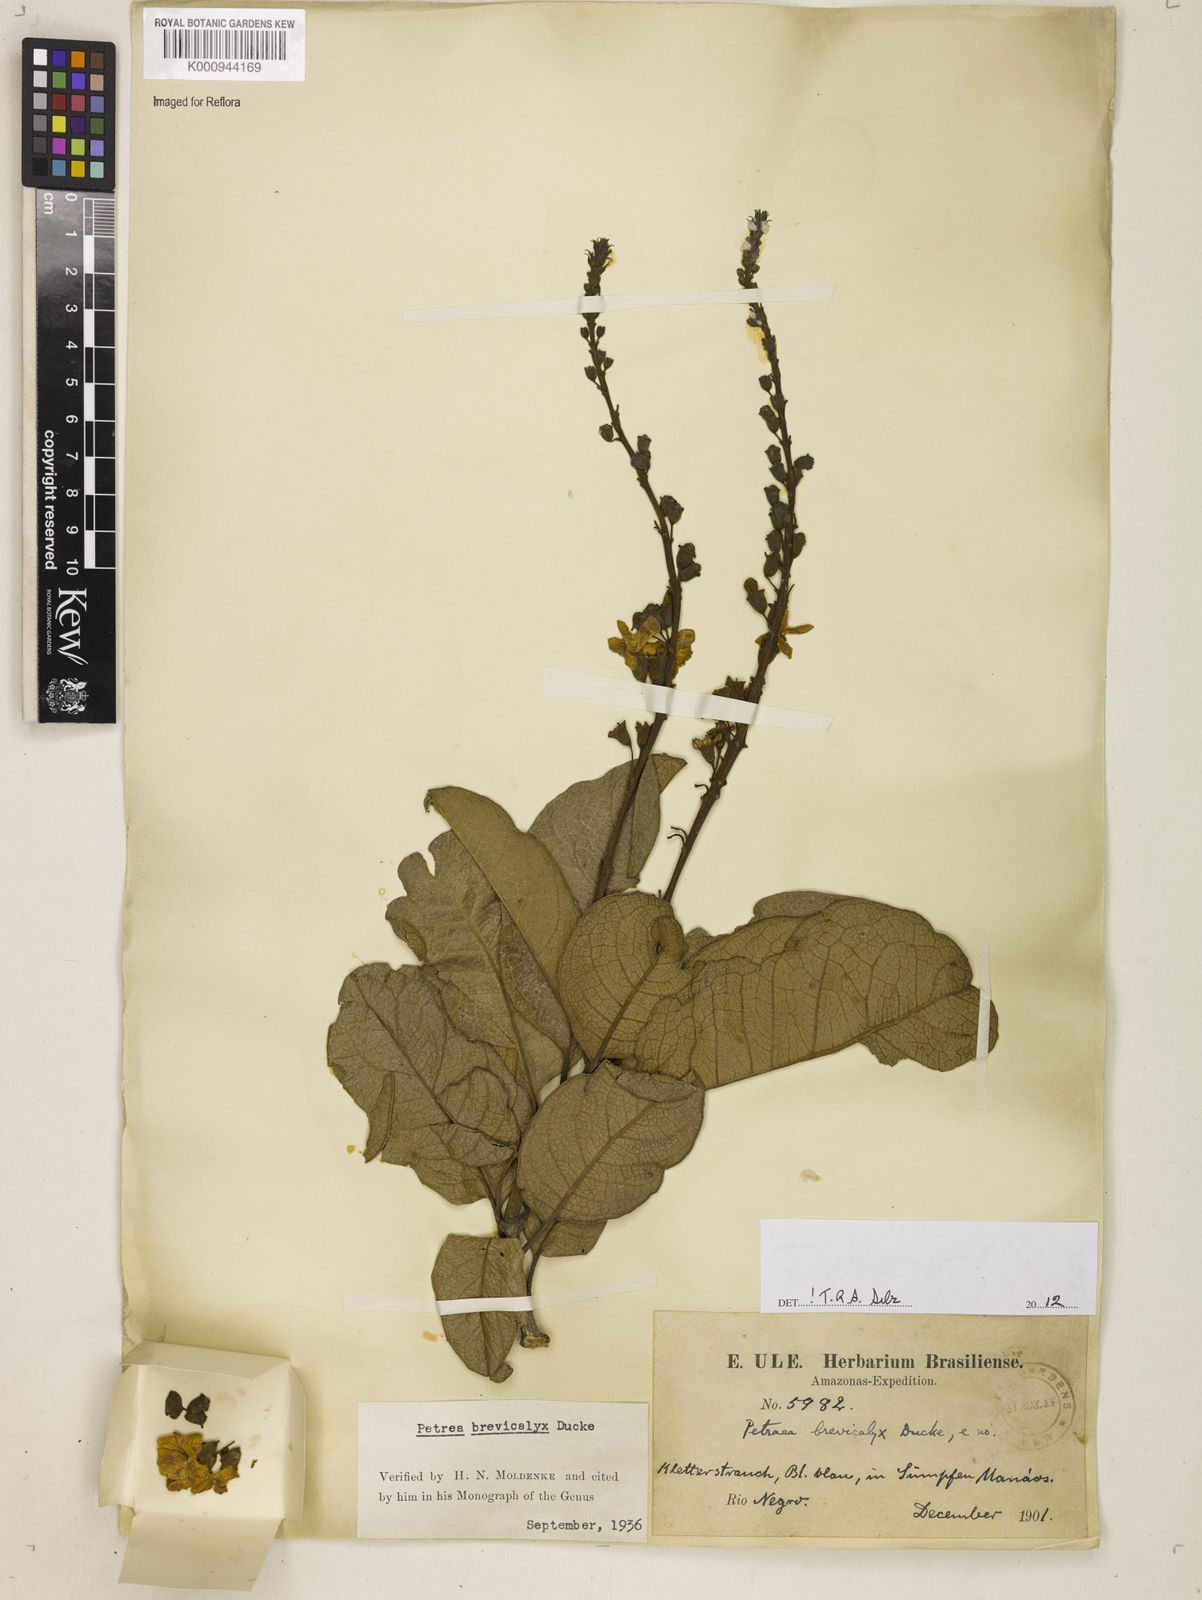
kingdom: Plantae
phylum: Tracheophyta
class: Magnoliopsida
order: Lamiales
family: Verbenaceae
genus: Petrea
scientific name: Petrea brevicalyx
